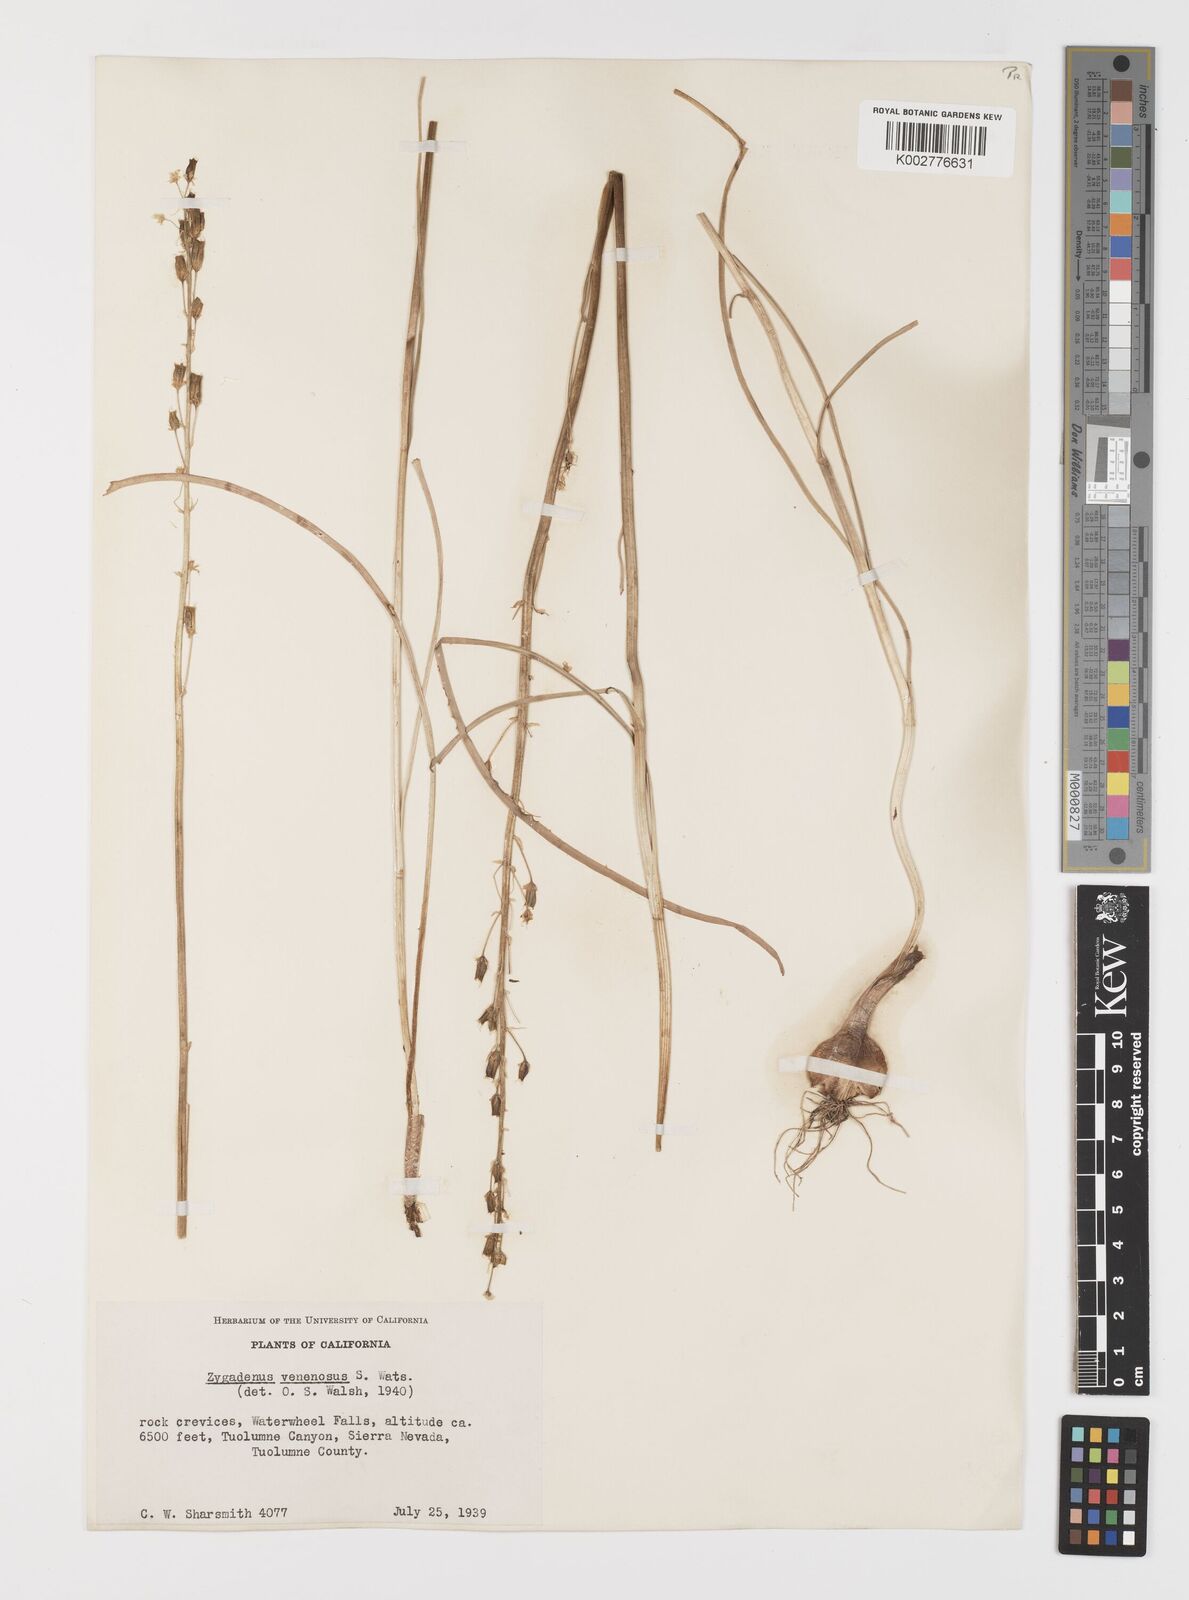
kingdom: Plantae
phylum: Tracheophyta
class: Liliopsida
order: Liliales
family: Melanthiaceae
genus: Toxicoscordion
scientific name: Toxicoscordion venenosum
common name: Meadow death camas
